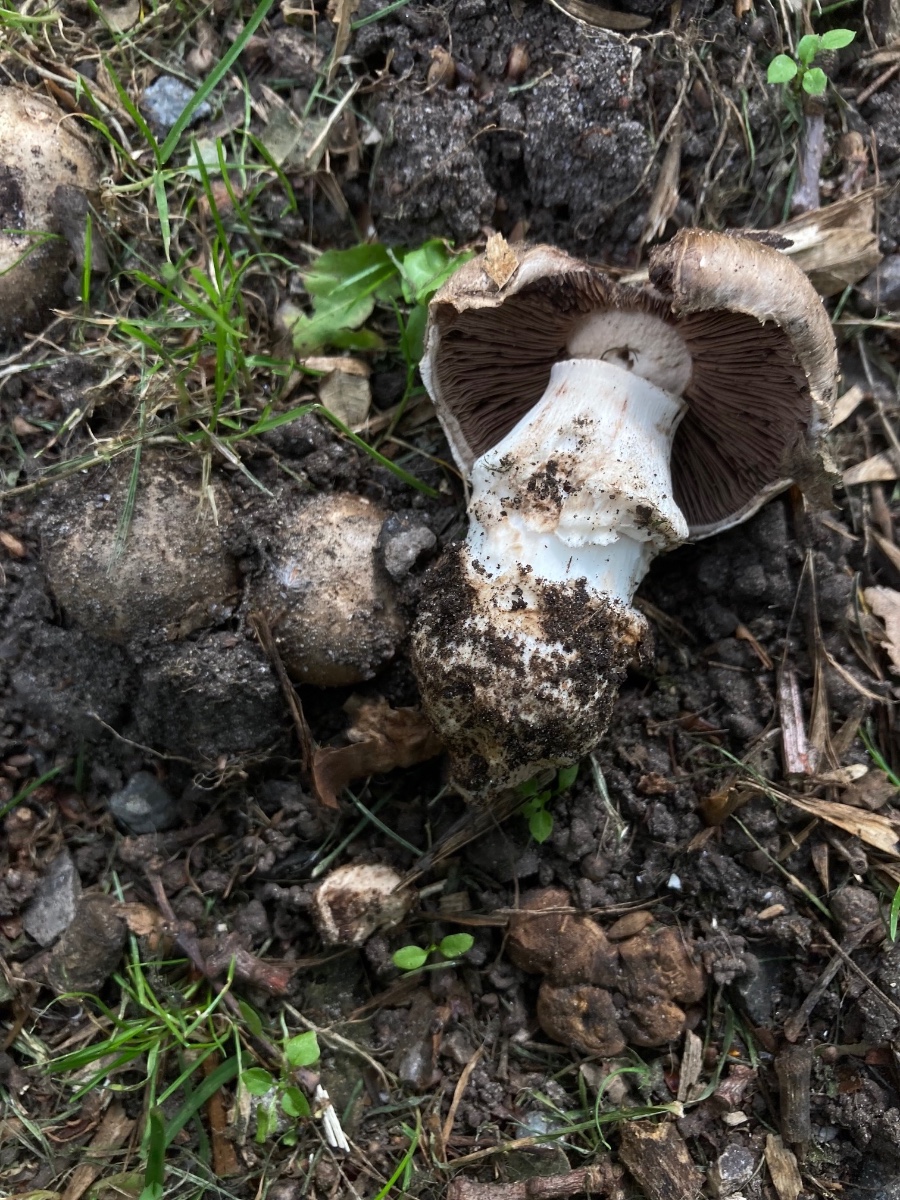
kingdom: Fungi
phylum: Basidiomycota
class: Agaricomycetes
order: Agaricales
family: Agaricaceae
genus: Agaricus
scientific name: Agaricus subperonatus
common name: knippe-champignon
